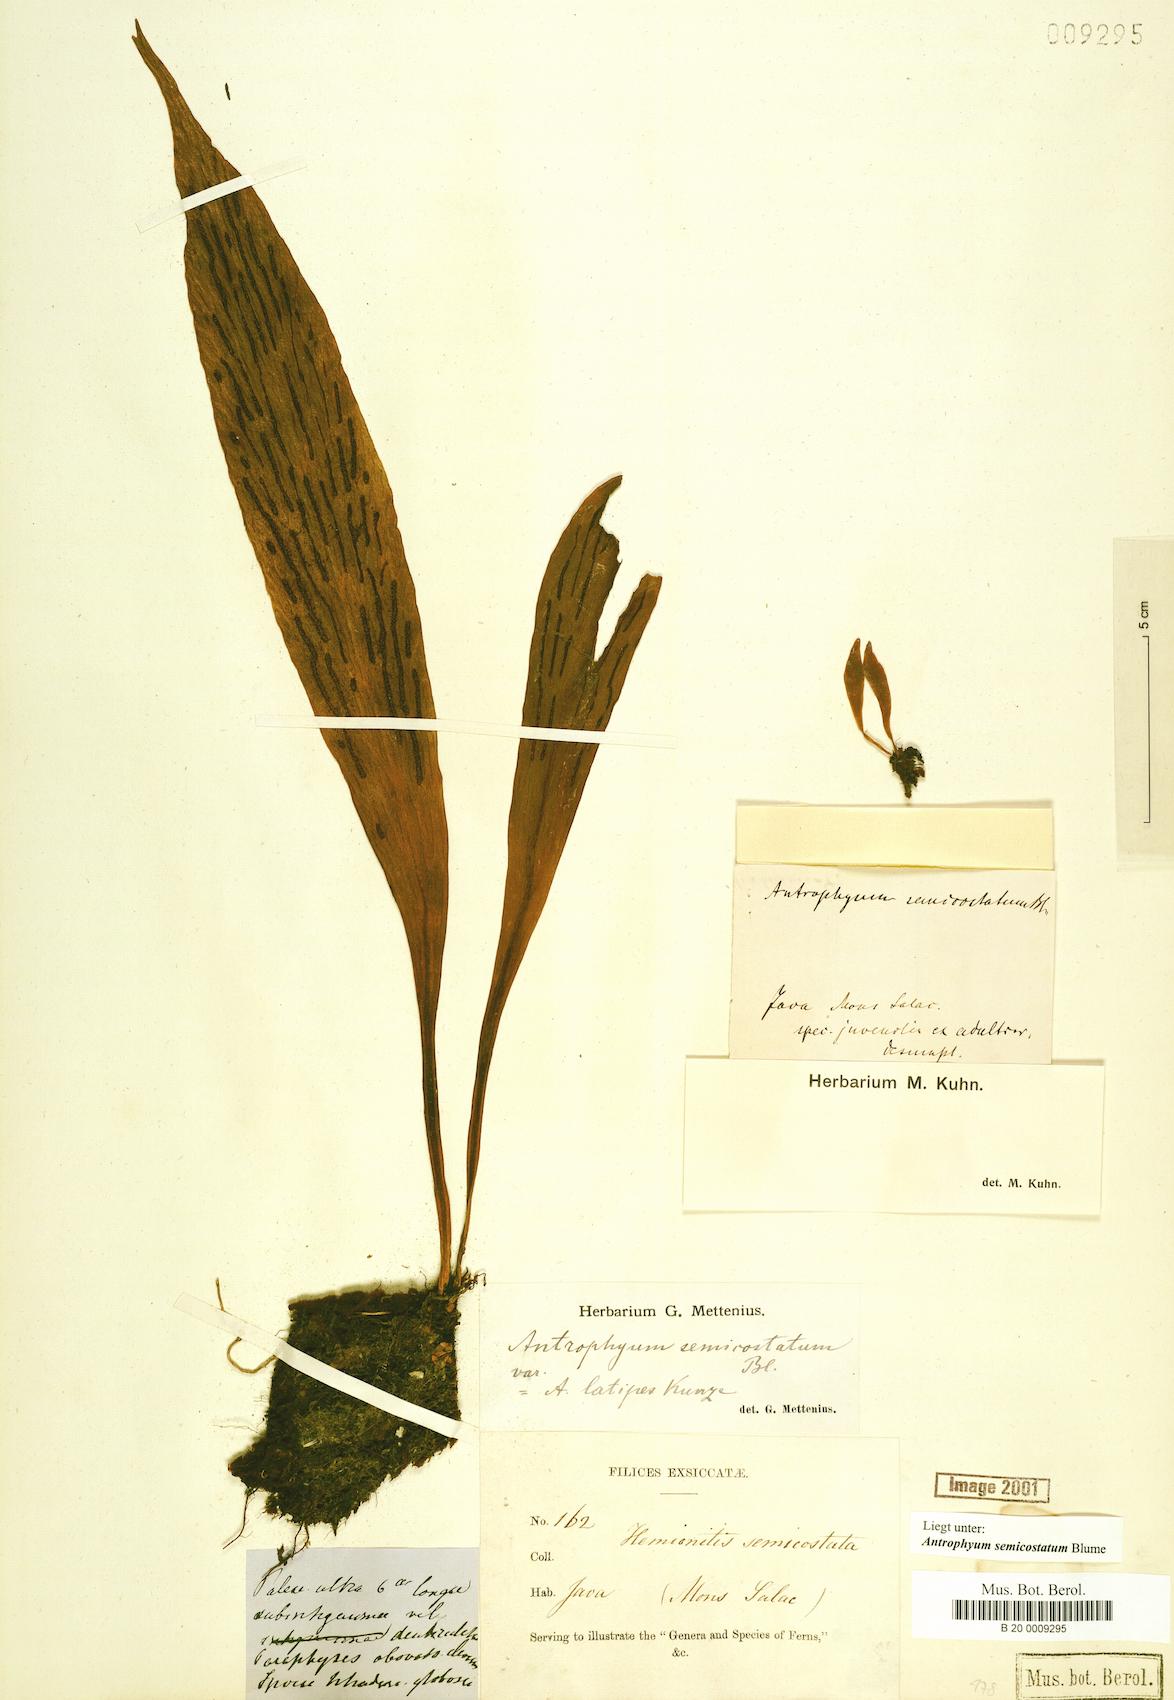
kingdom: Plantae
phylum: Tracheophyta
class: Polypodiopsida
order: Polypodiales
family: Pteridaceae
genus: Antrophyum
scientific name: Antrophyum semicostatum
